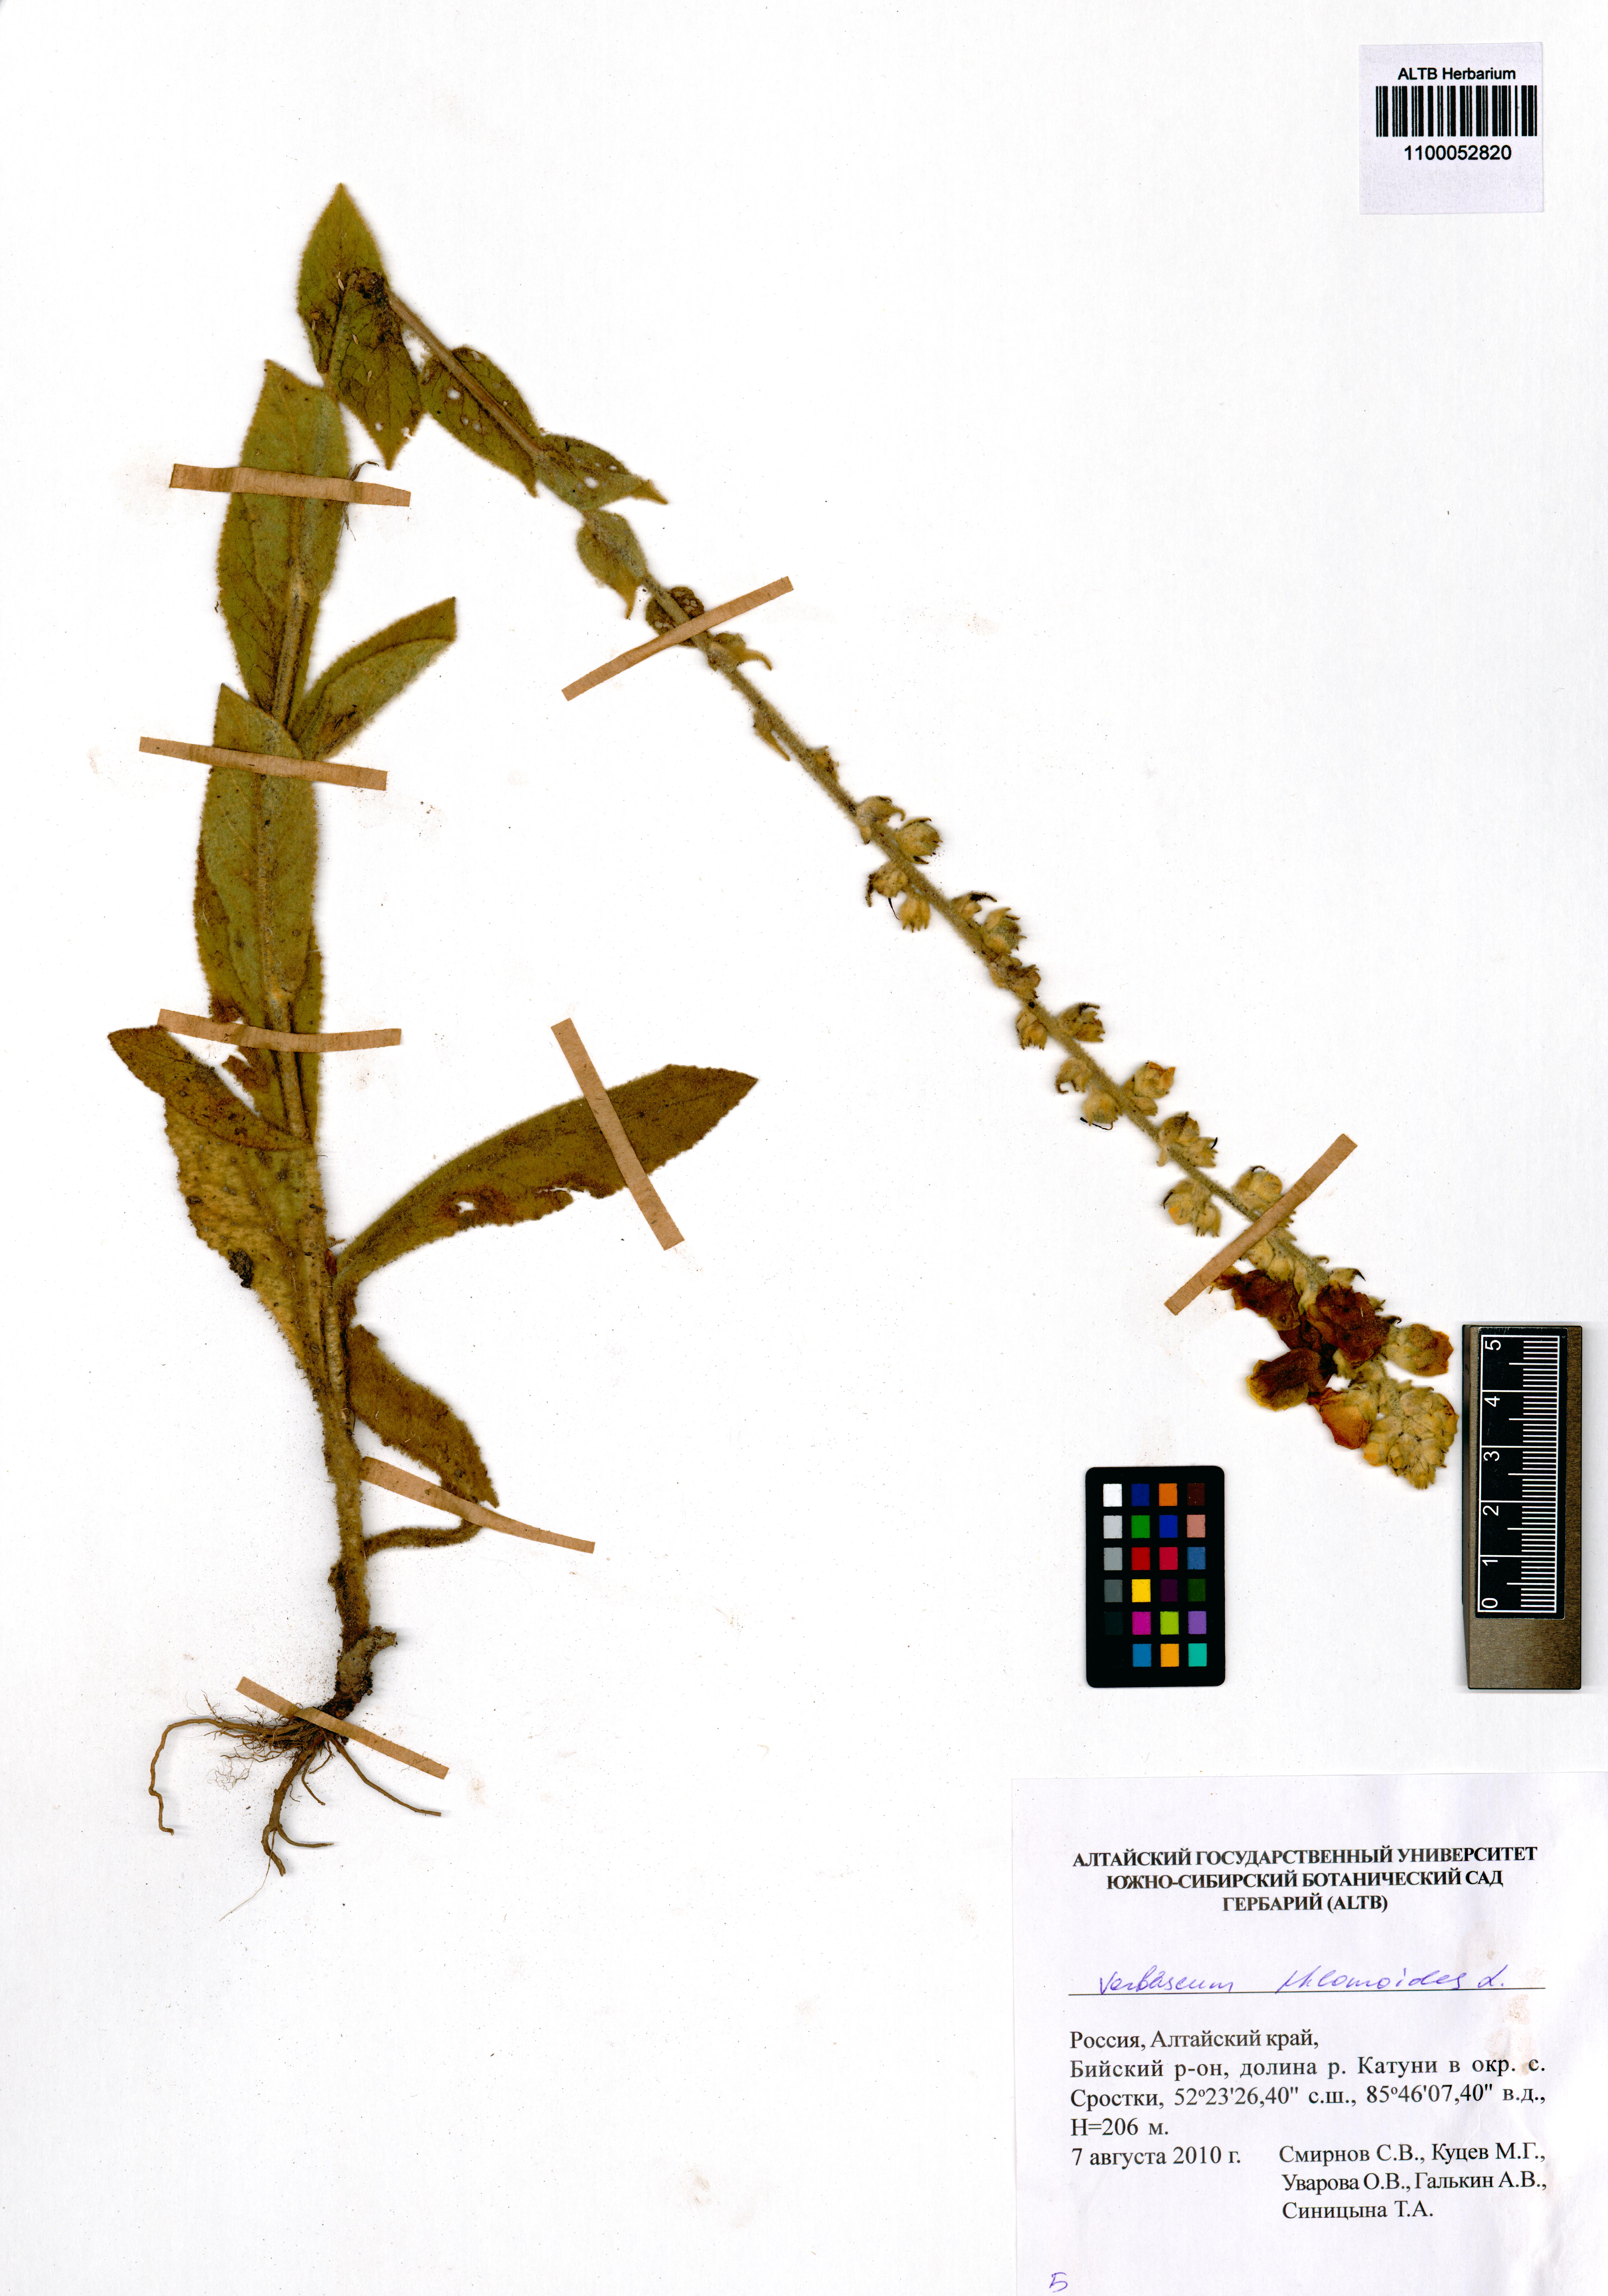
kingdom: Plantae
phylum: Tracheophyta
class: Magnoliopsida
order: Lamiales
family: Scrophulariaceae
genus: Verbascum
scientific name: Verbascum phlomoides
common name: Orange mullein
